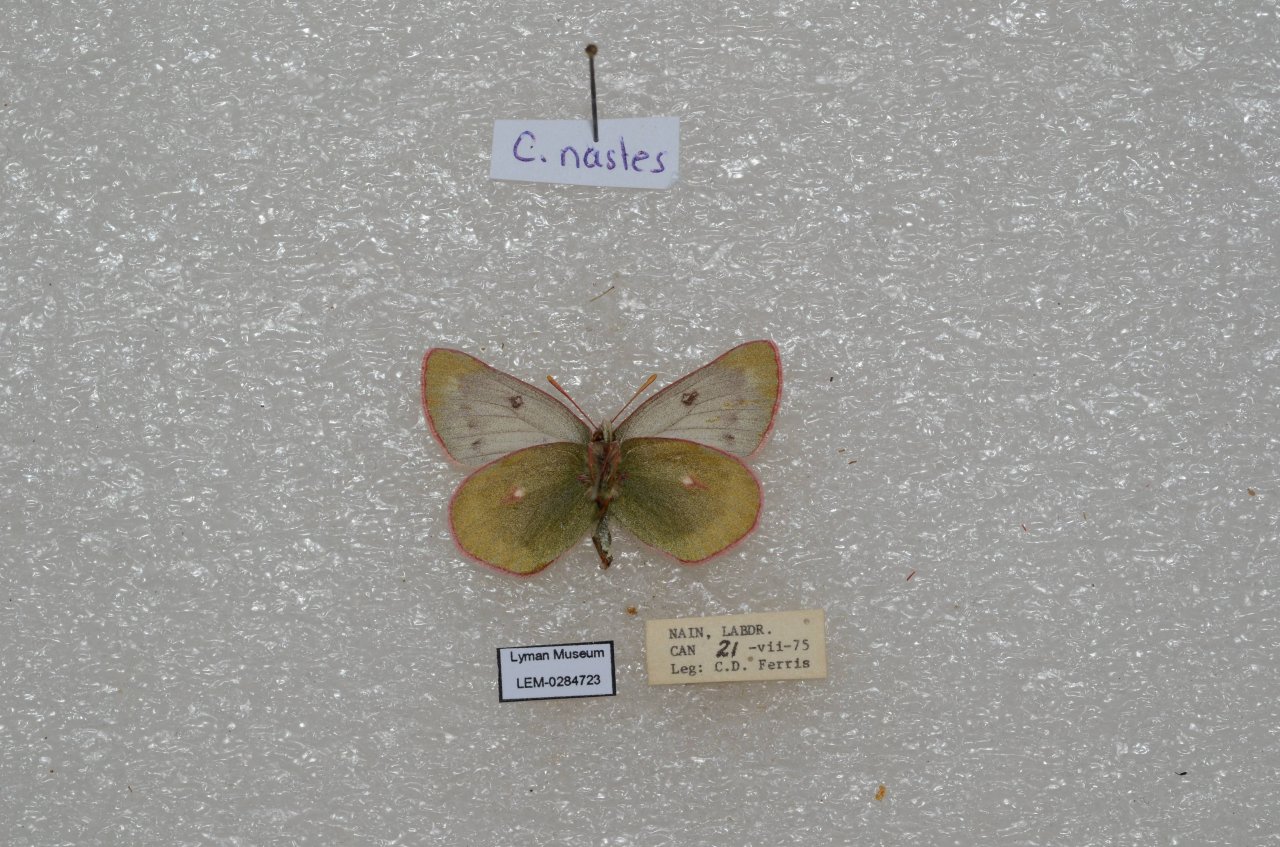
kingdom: Animalia
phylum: Arthropoda
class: Insecta
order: Lepidoptera
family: Pieridae
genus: Colias
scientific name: Colias nastes
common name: Labrador Sulphur
